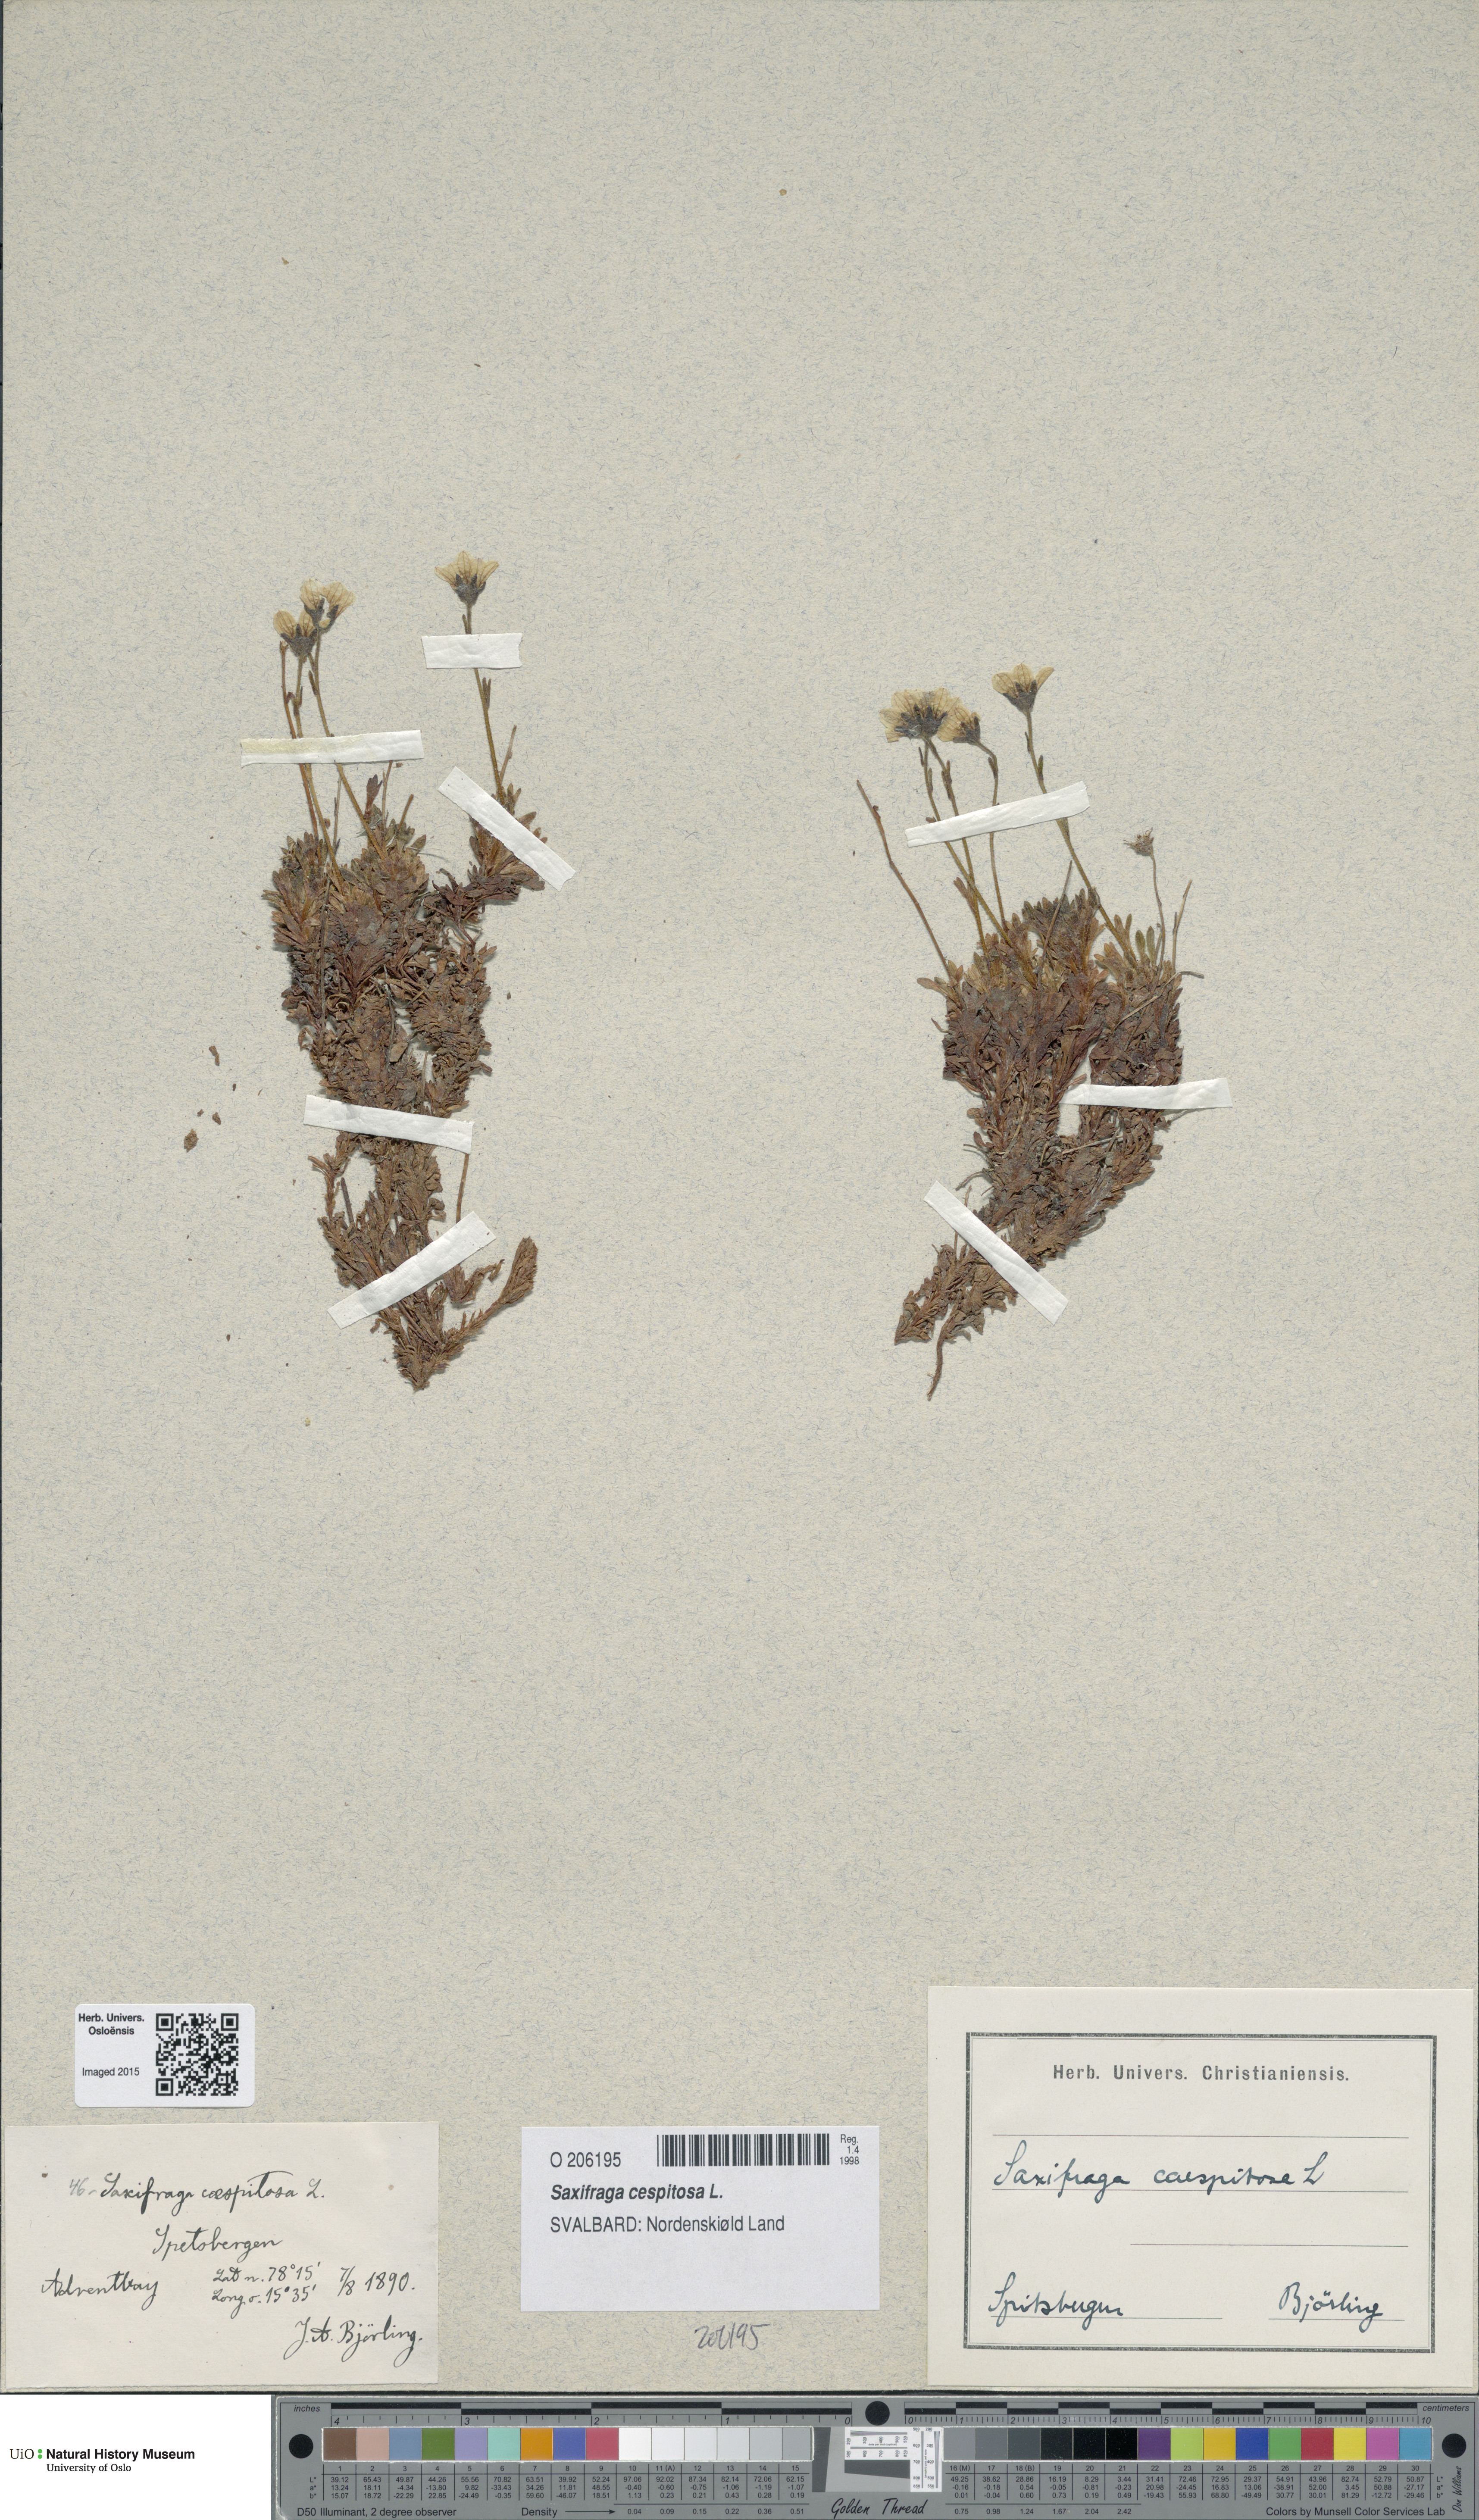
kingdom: Plantae
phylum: Tracheophyta
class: Magnoliopsida
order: Saxifragales
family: Saxifragaceae
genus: Saxifraga
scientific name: Saxifraga cespitosa
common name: Tufted saxifrage
